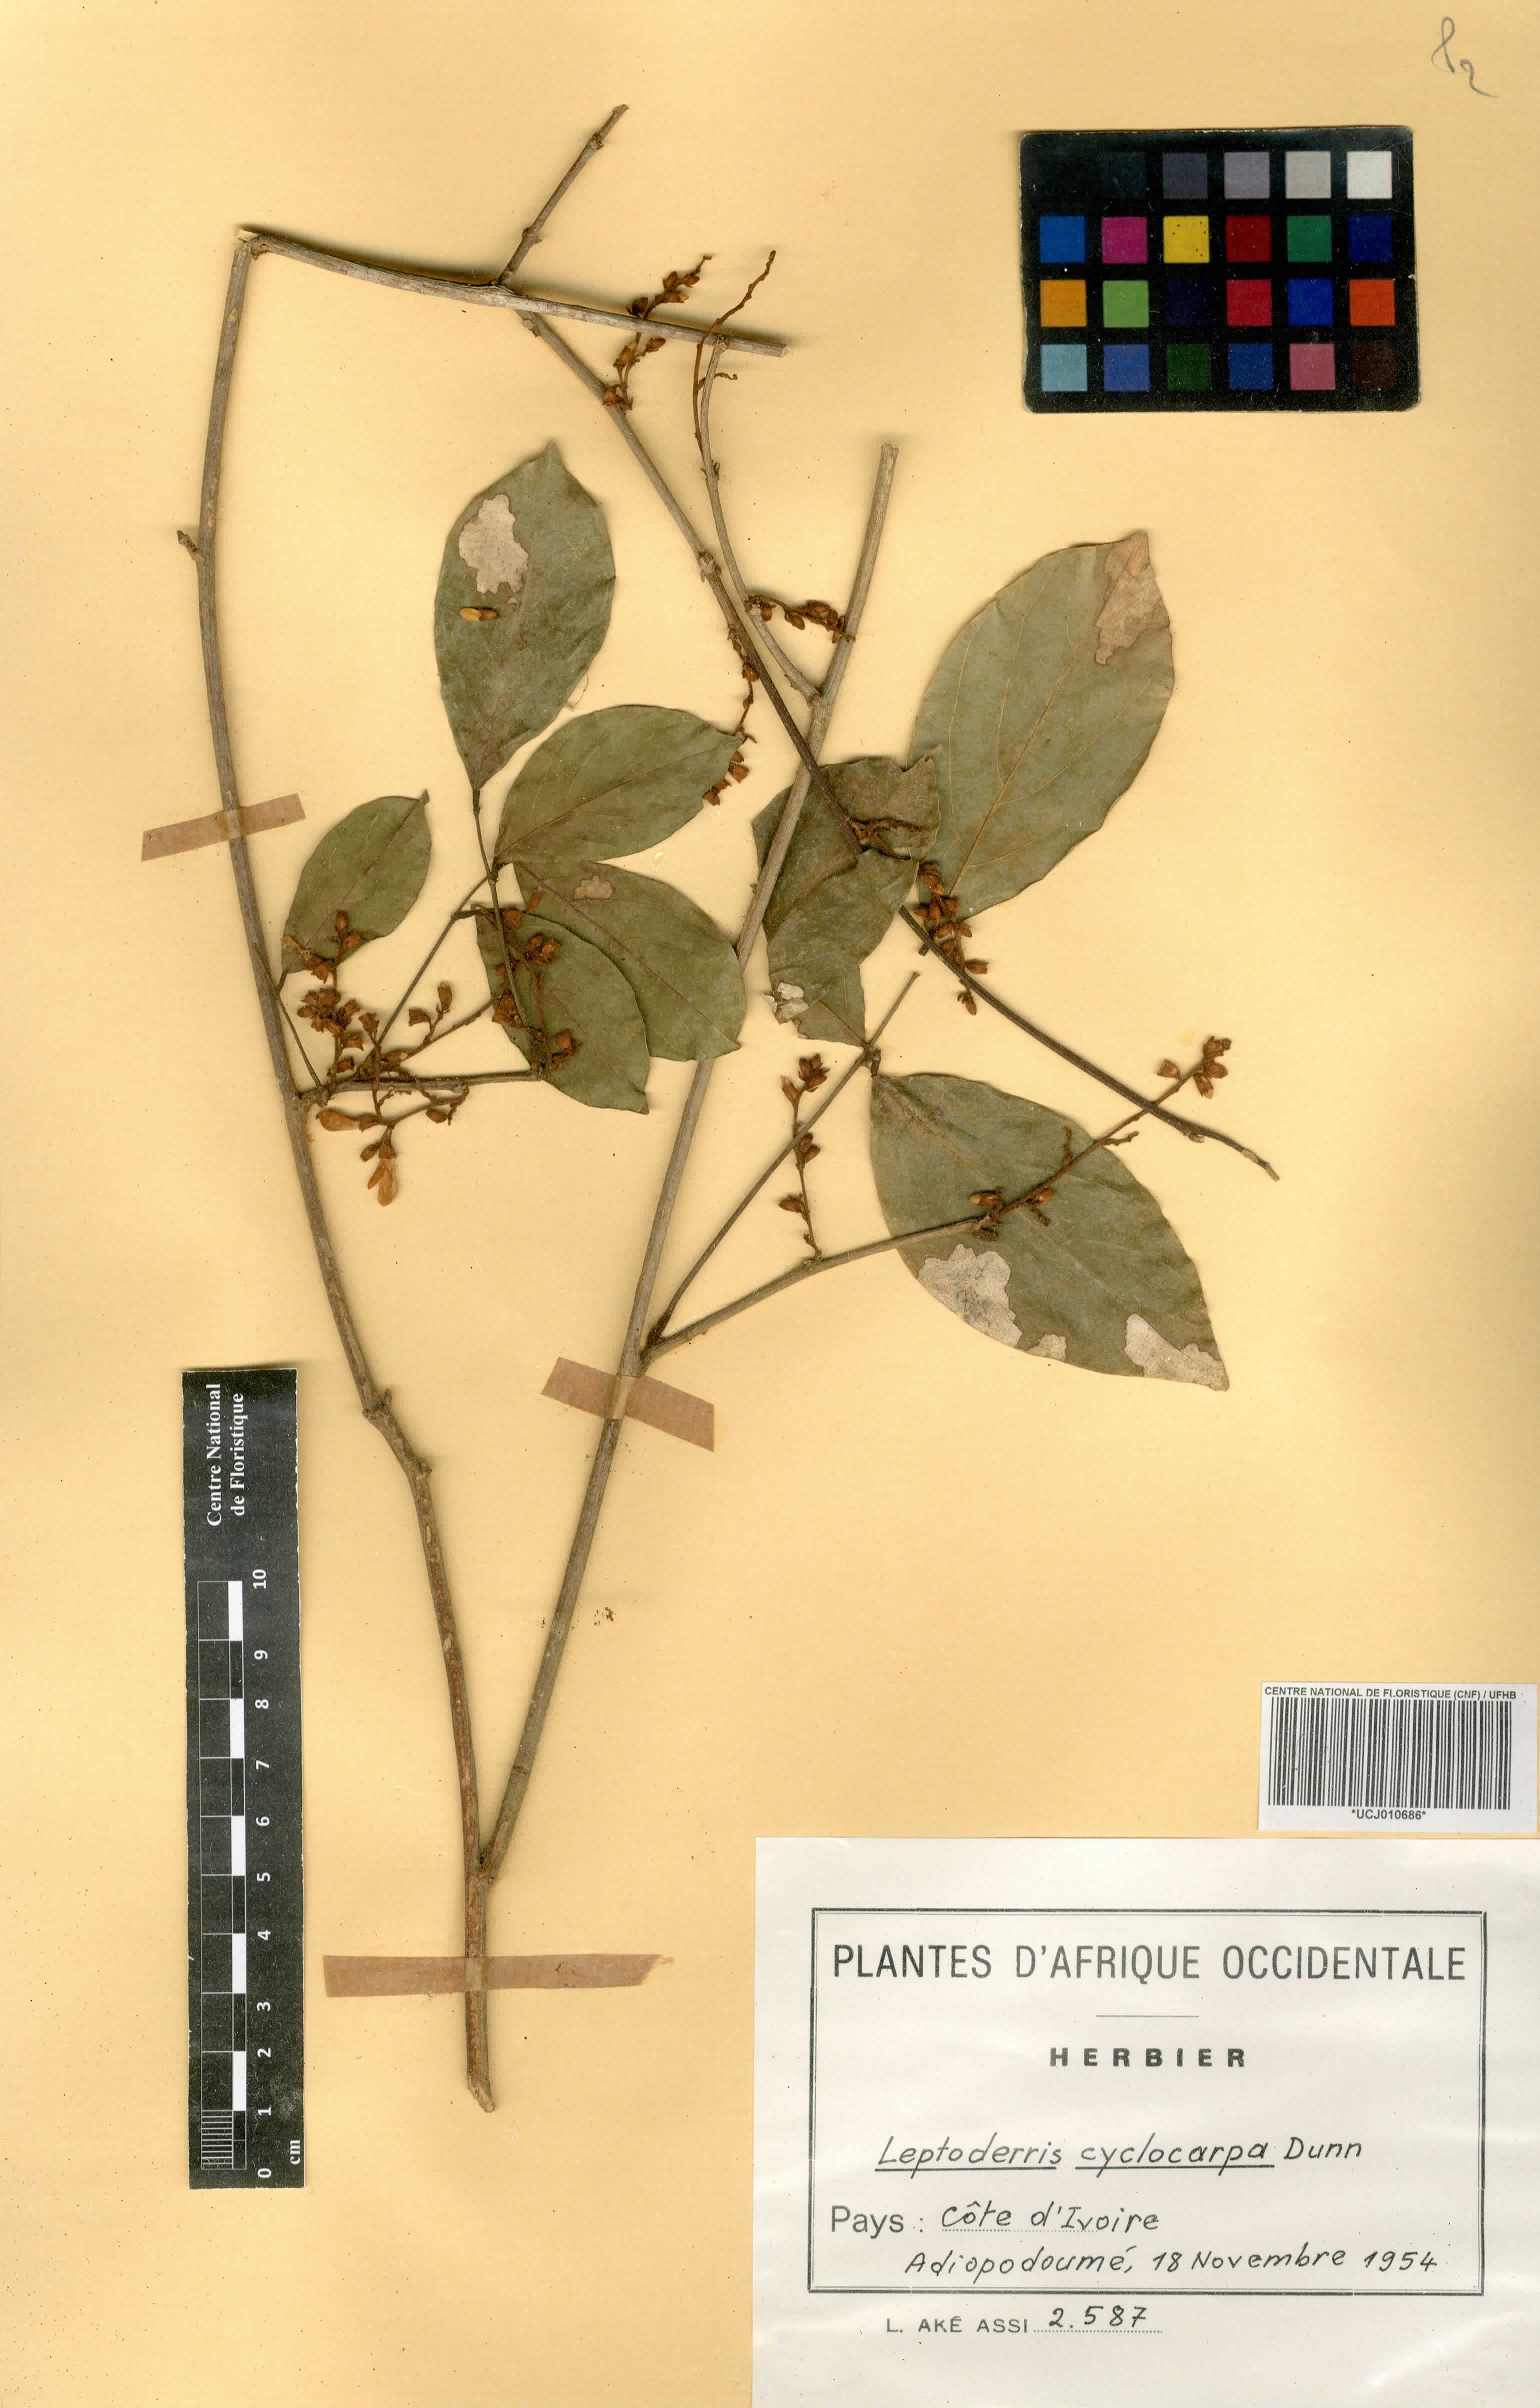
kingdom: Plantae
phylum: Tracheophyta
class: Magnoliopsida
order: Fabales
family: Fabaceae
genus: Leptoderris
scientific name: Leptoderris cyclocarpa
